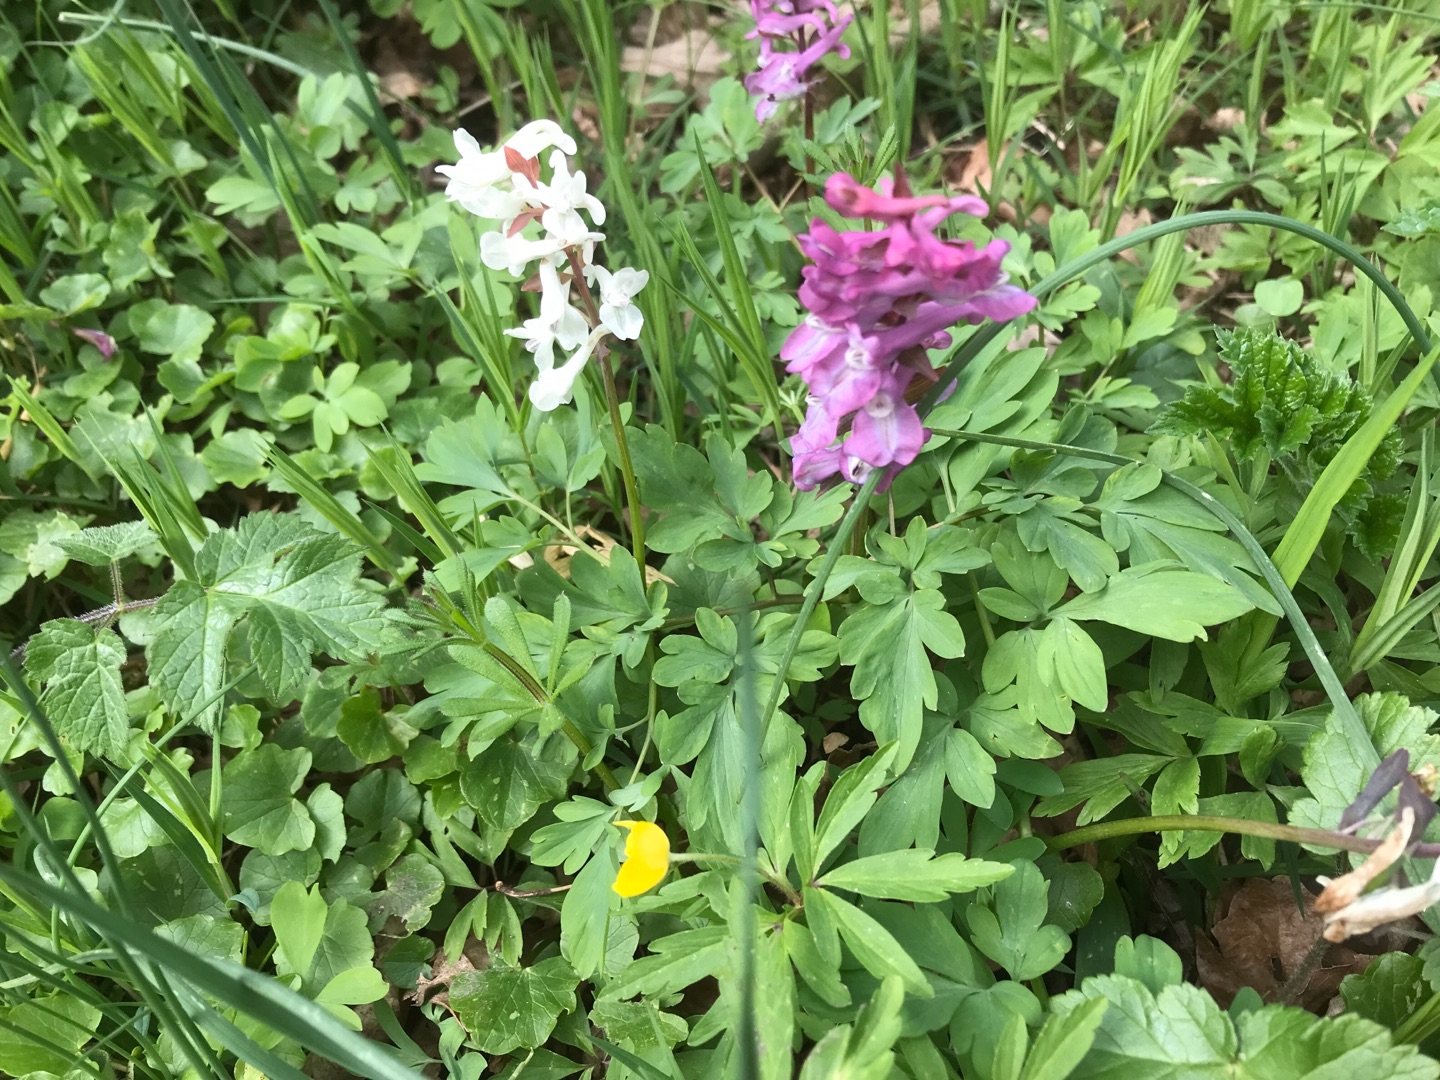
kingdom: Plantae
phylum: Tracheophyta
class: Magnoliopsida
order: Ranunculales
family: Papaveraceae
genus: Corydalis
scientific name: Corydalis cava
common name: Hulrodet lærkespore
